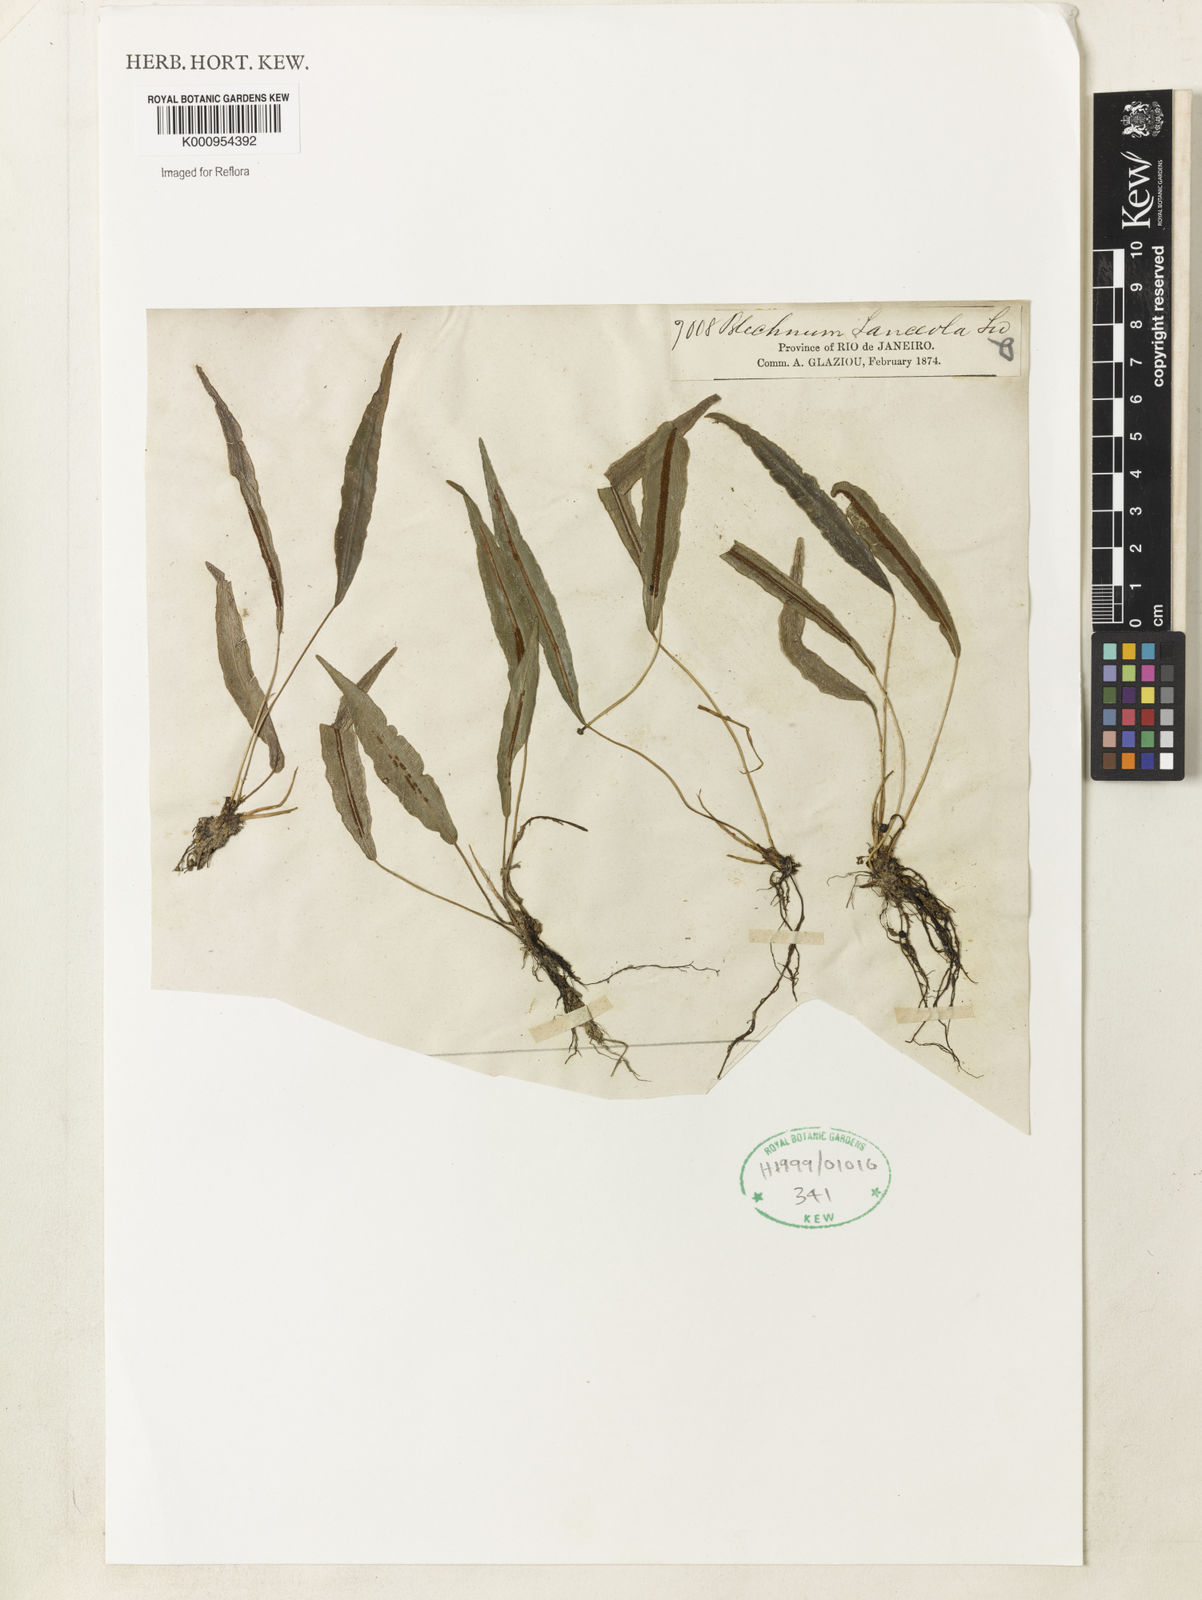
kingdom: Plantae
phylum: Tracheophyta
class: Polypodiopsida
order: Polypodiales
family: Blechnaceae
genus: Blechnum
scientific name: Blechnum lanceola
